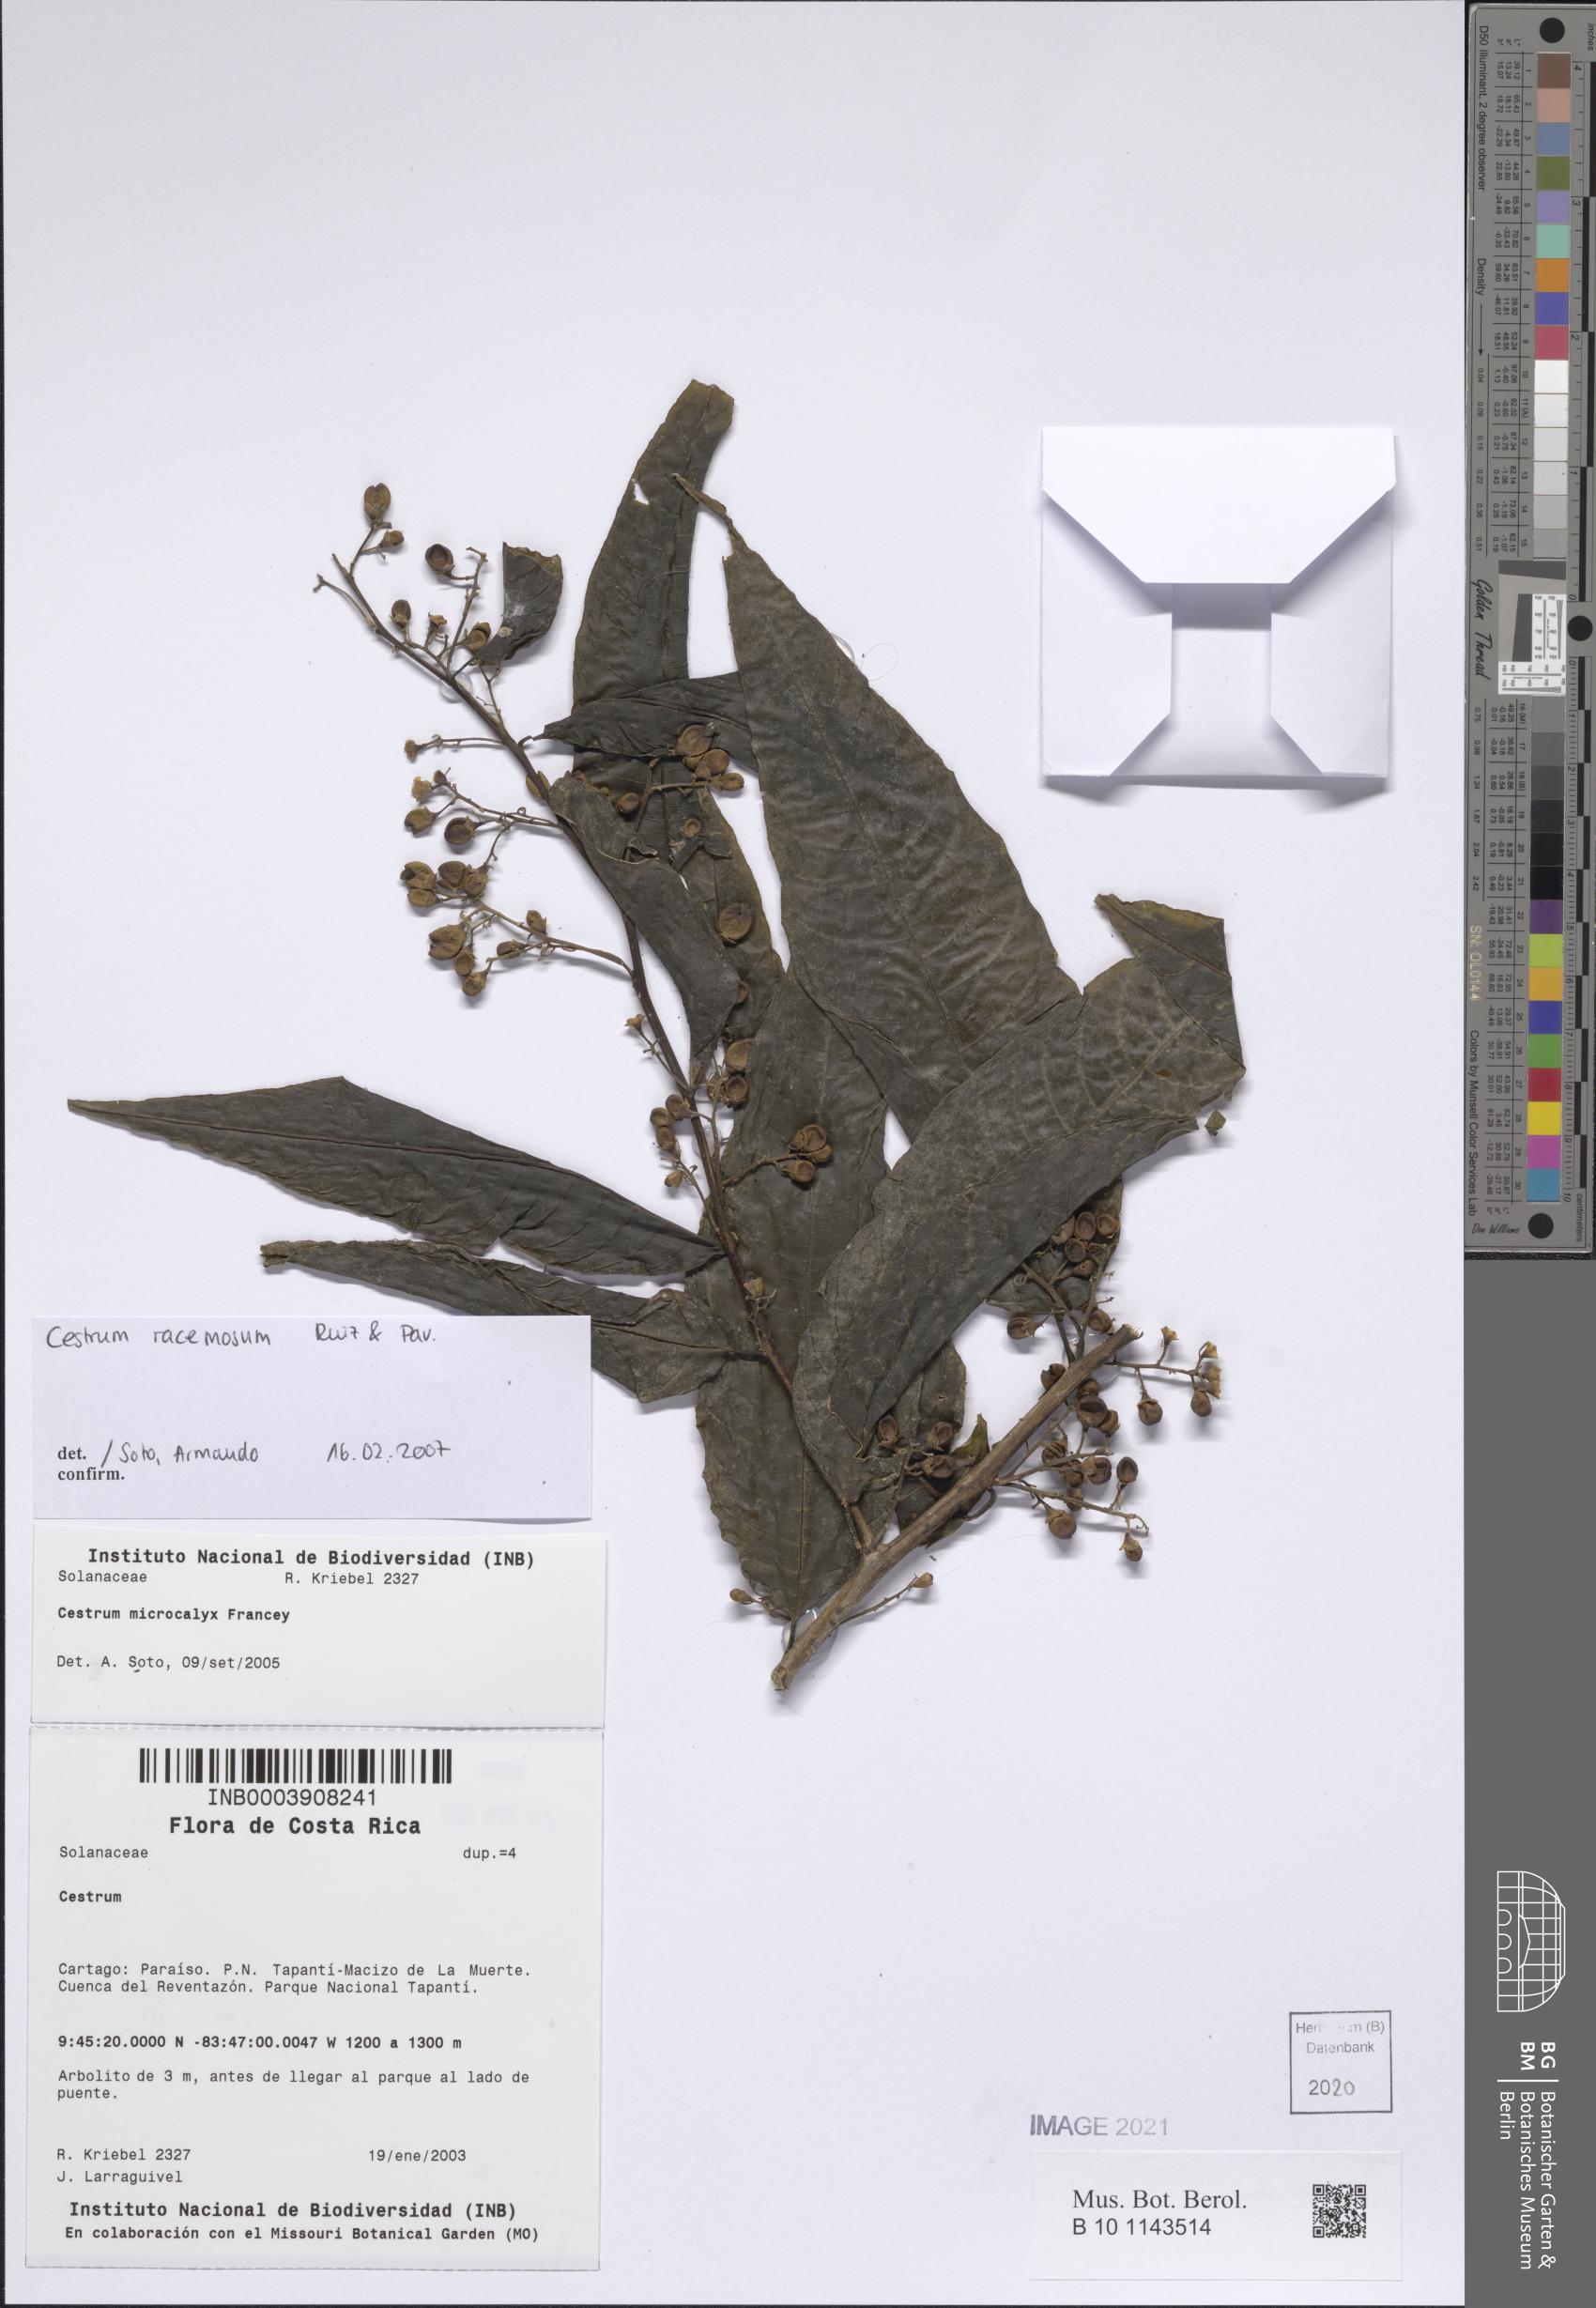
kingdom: Plantae
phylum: Tracheophyta
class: Magnoliopsida
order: Solanales
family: Solanaceae
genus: Cestrum
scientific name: Cestrum racemosum
